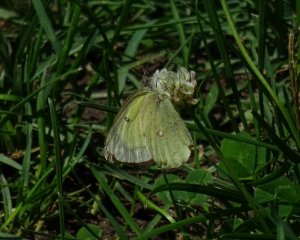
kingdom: Animalia
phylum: Arthropoda
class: Insecta
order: Lepidoptera
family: Pieridae
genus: Colias
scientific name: Colias philodice
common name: Clouded Sulphur
